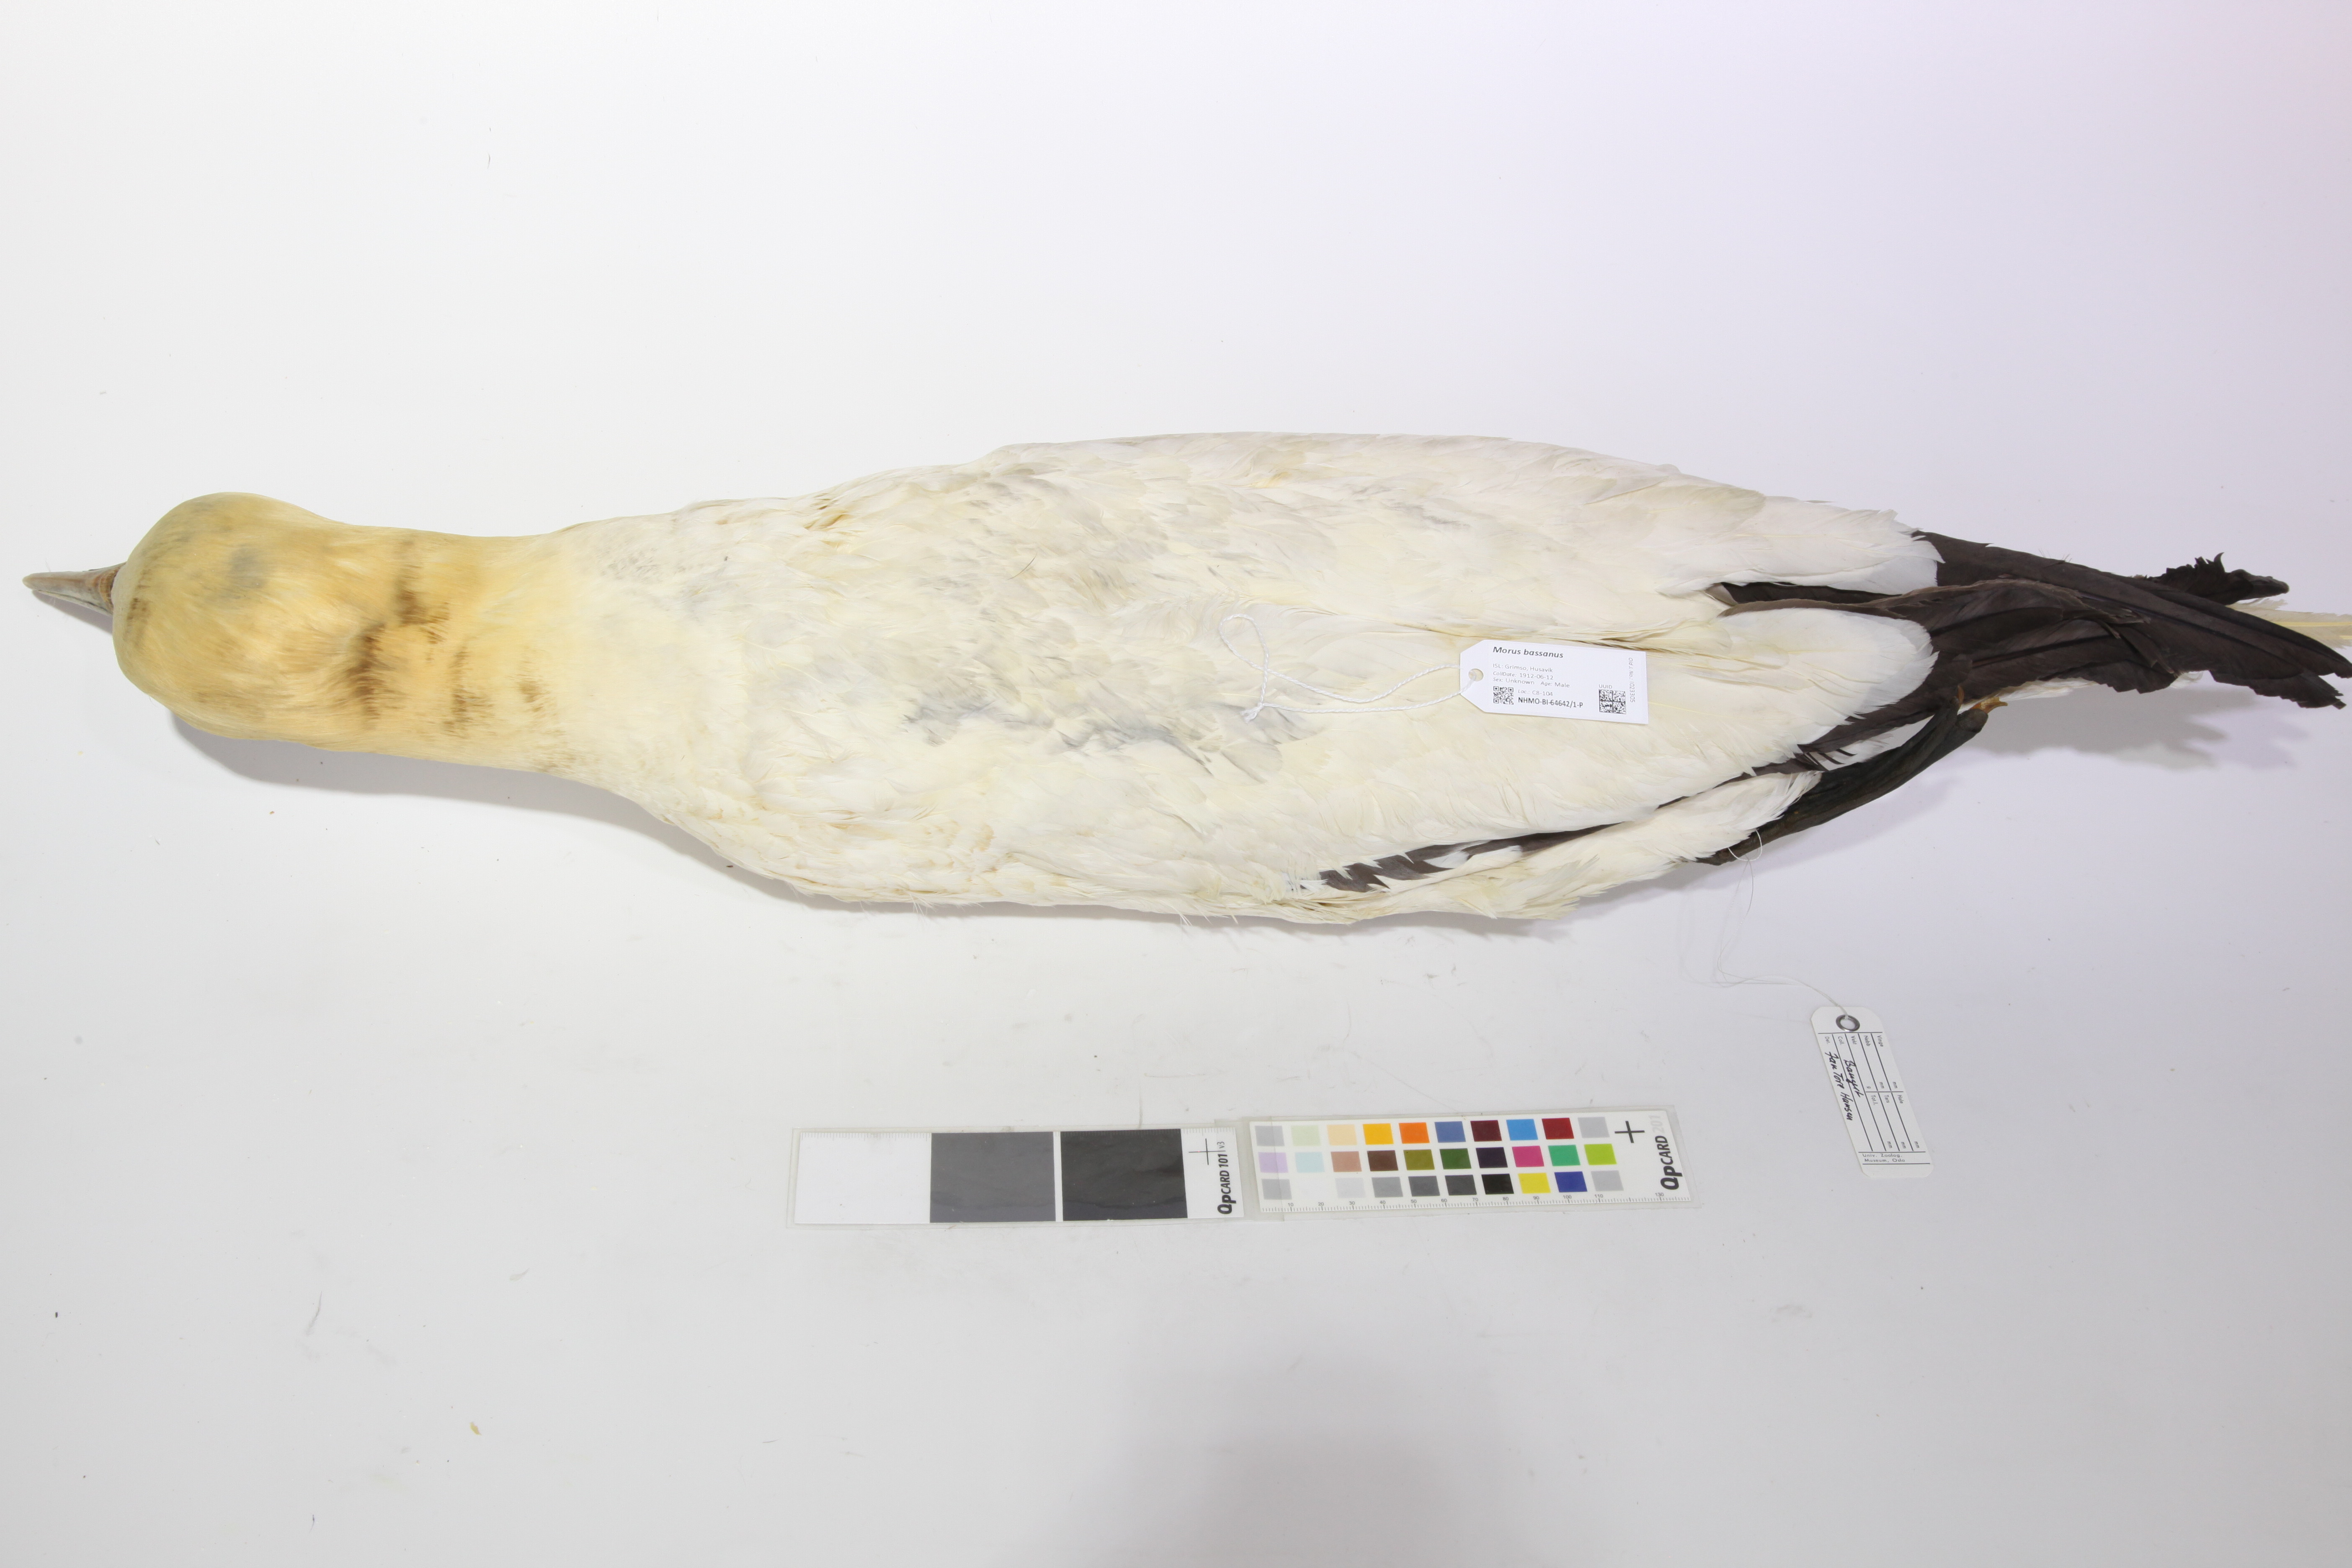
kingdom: Animalia
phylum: Chordata
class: Aves
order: Suliformes
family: Sulidae
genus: Morus
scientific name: Morus bassanus
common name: Northern gannet
